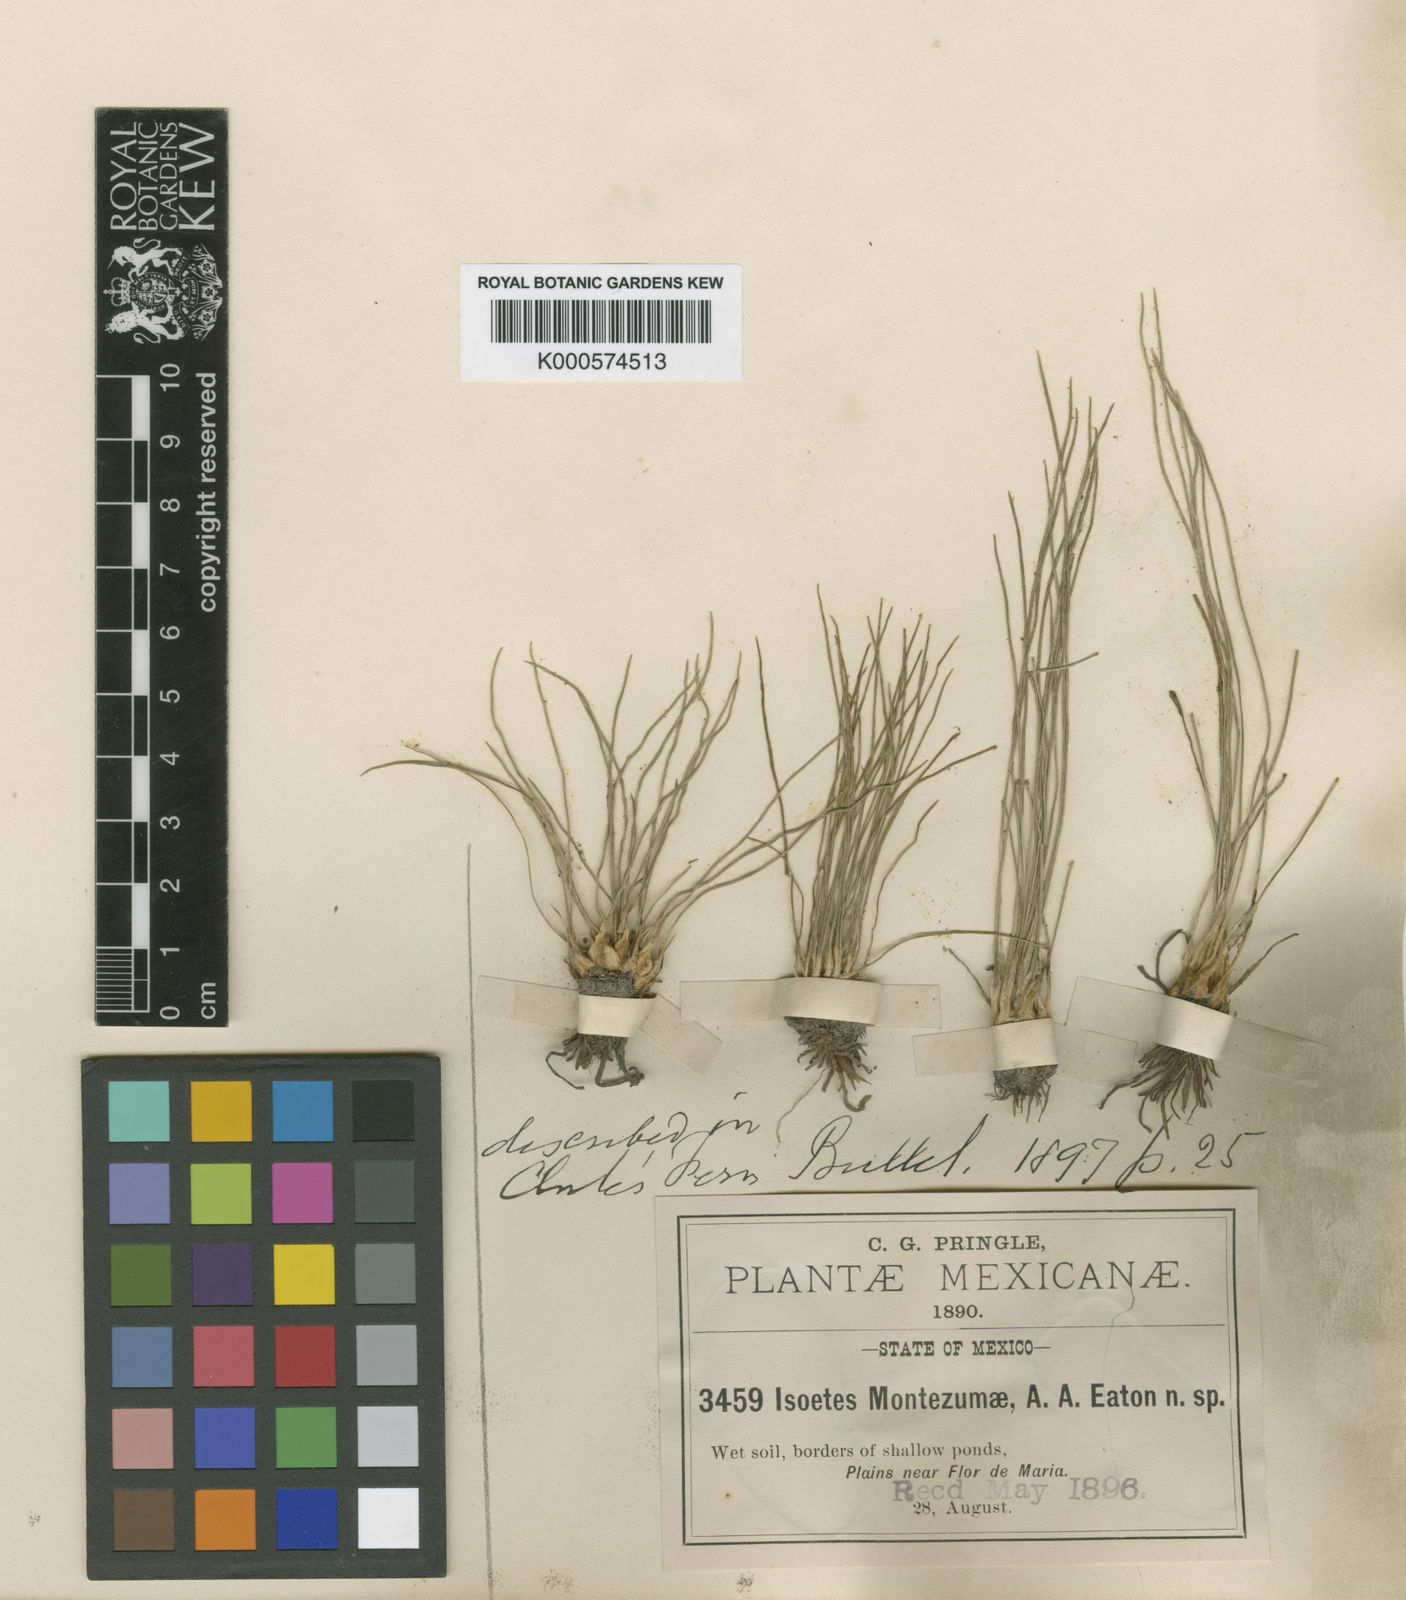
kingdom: Plantae
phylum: Tracheophyta
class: Lycopodiopsida
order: Isoetales
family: Isoetaceae
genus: Isoetes
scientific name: Isoetes mexicana
